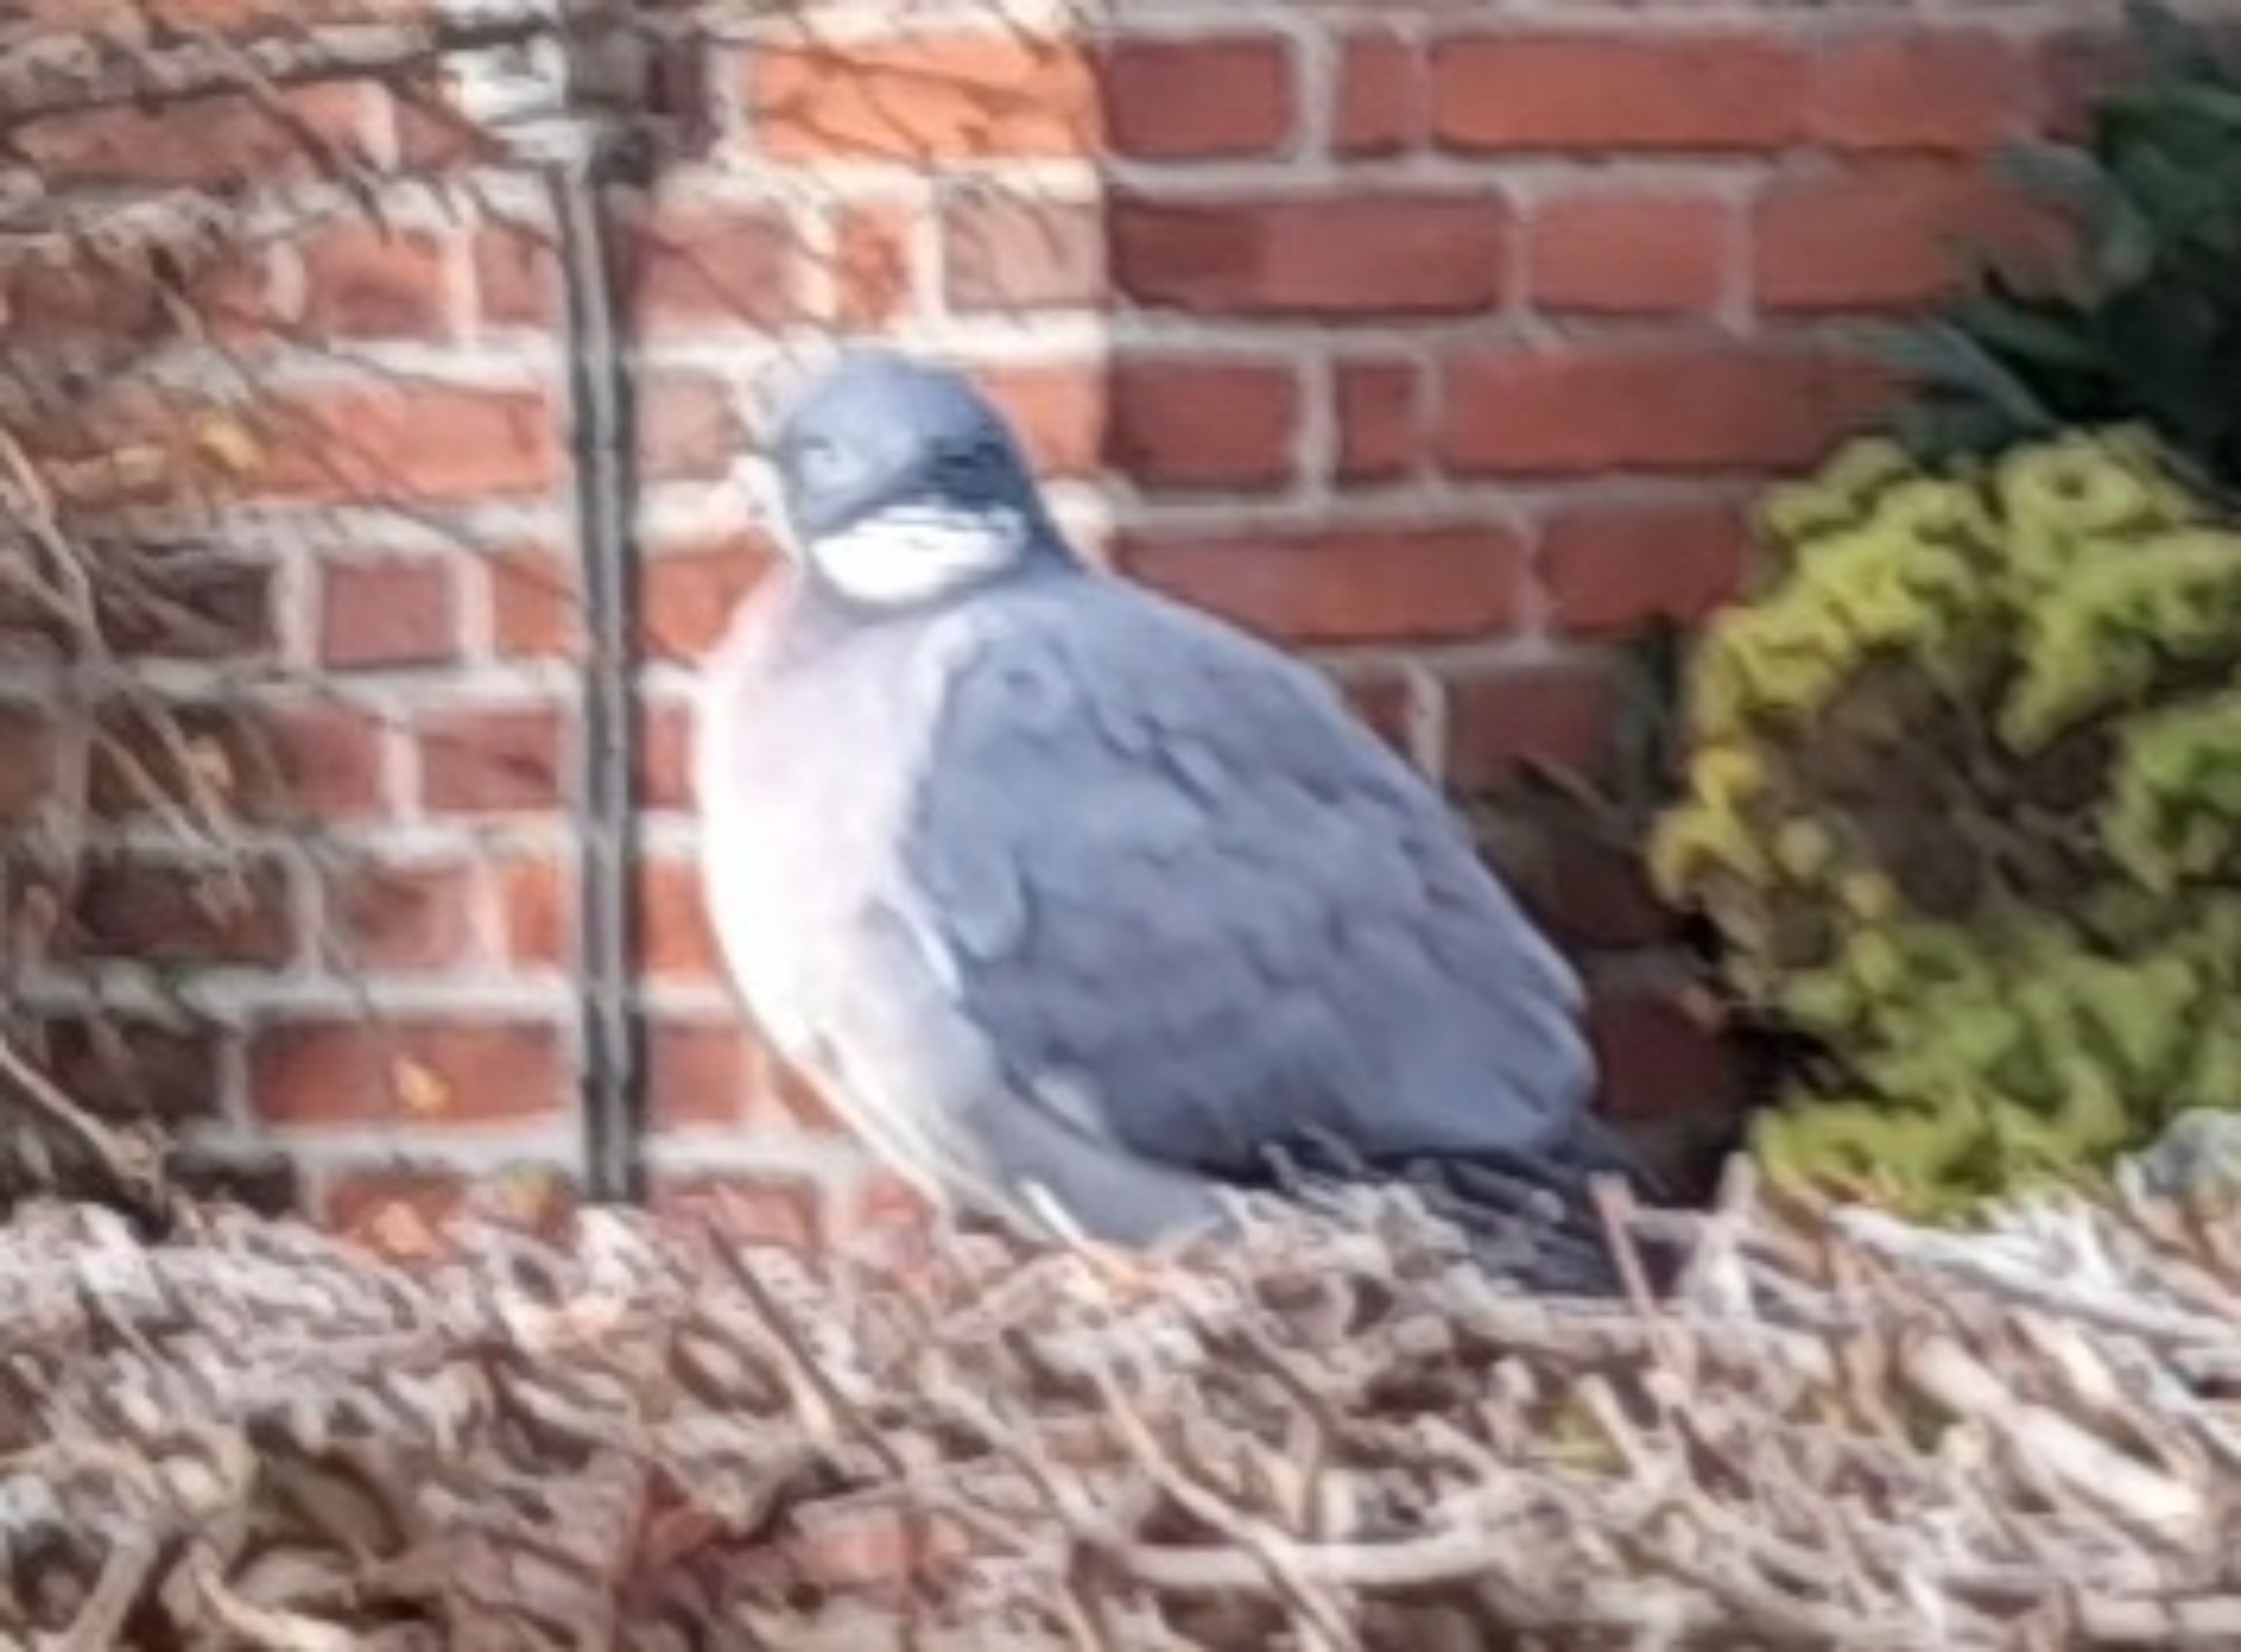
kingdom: Animalia
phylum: Chordata
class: Aves
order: Columbiformes
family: Columbidae
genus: Columba
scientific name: Columba palumbus
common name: Ringdue
